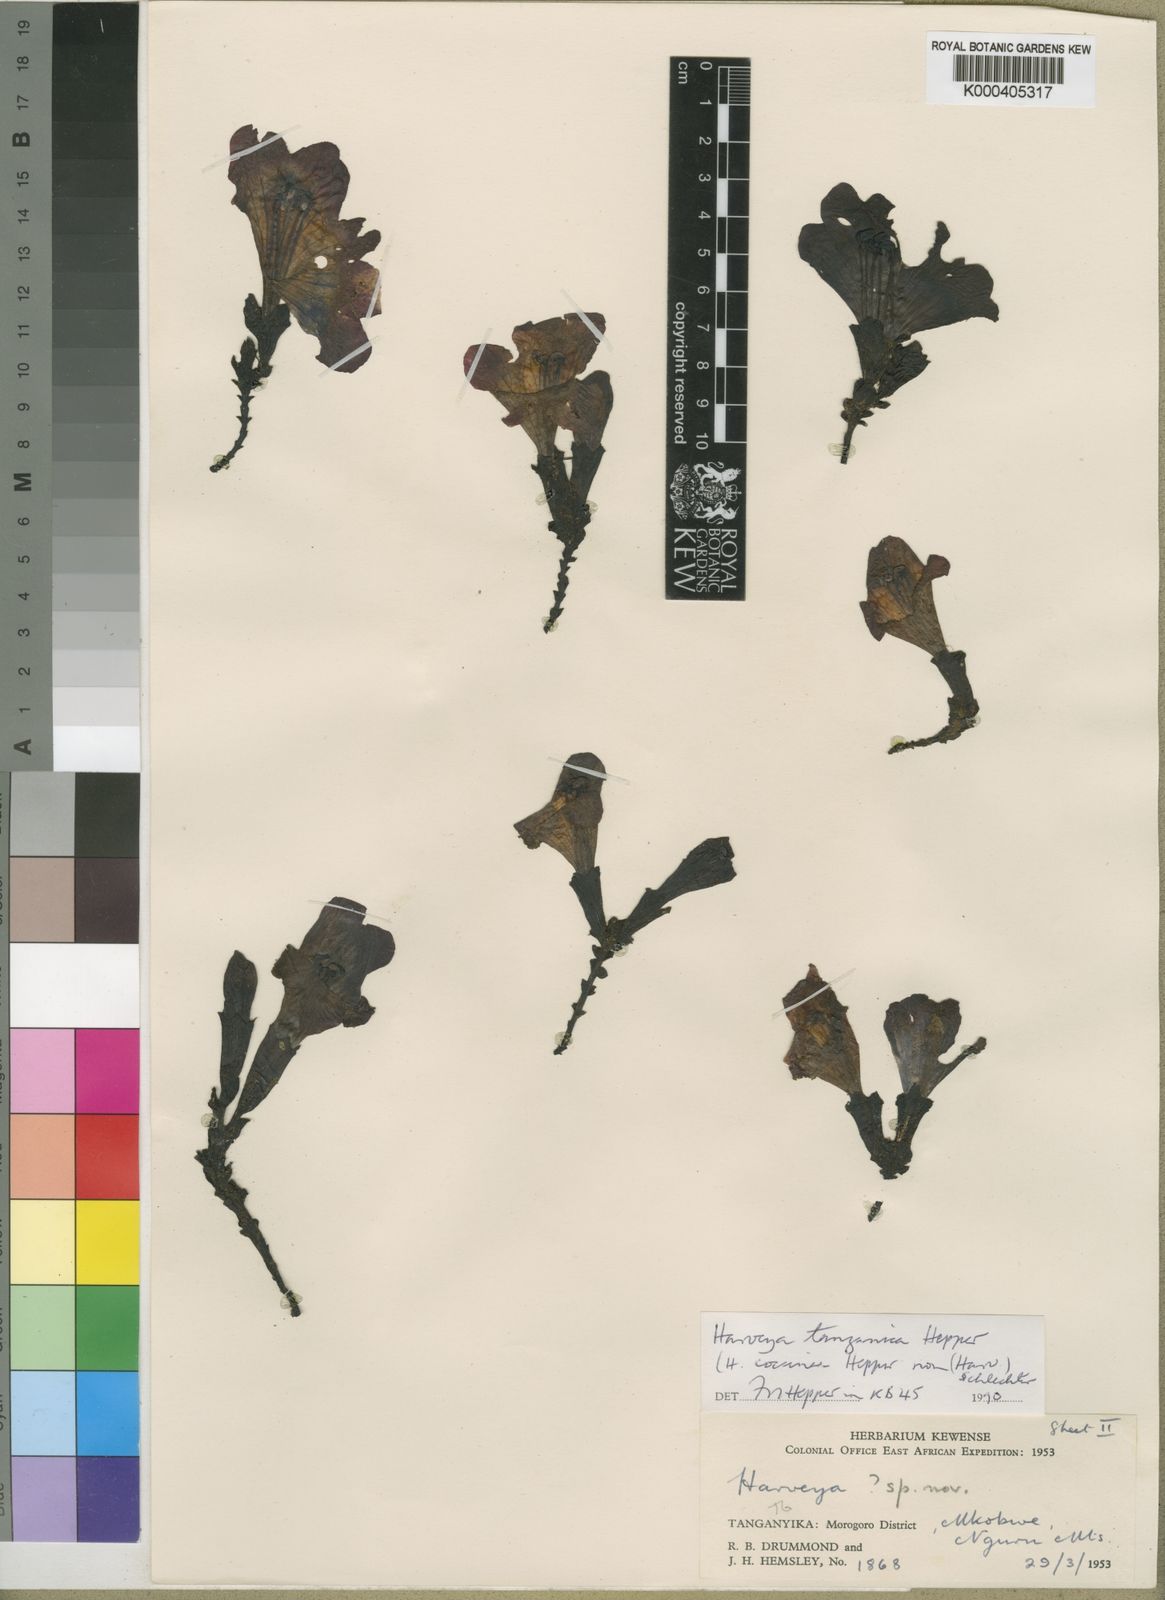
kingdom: Plantae
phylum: Tracheophyta
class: Magnoliopsida
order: Lamiales
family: Orobanchaceae
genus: Harveya
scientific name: Harveya tanzanica
